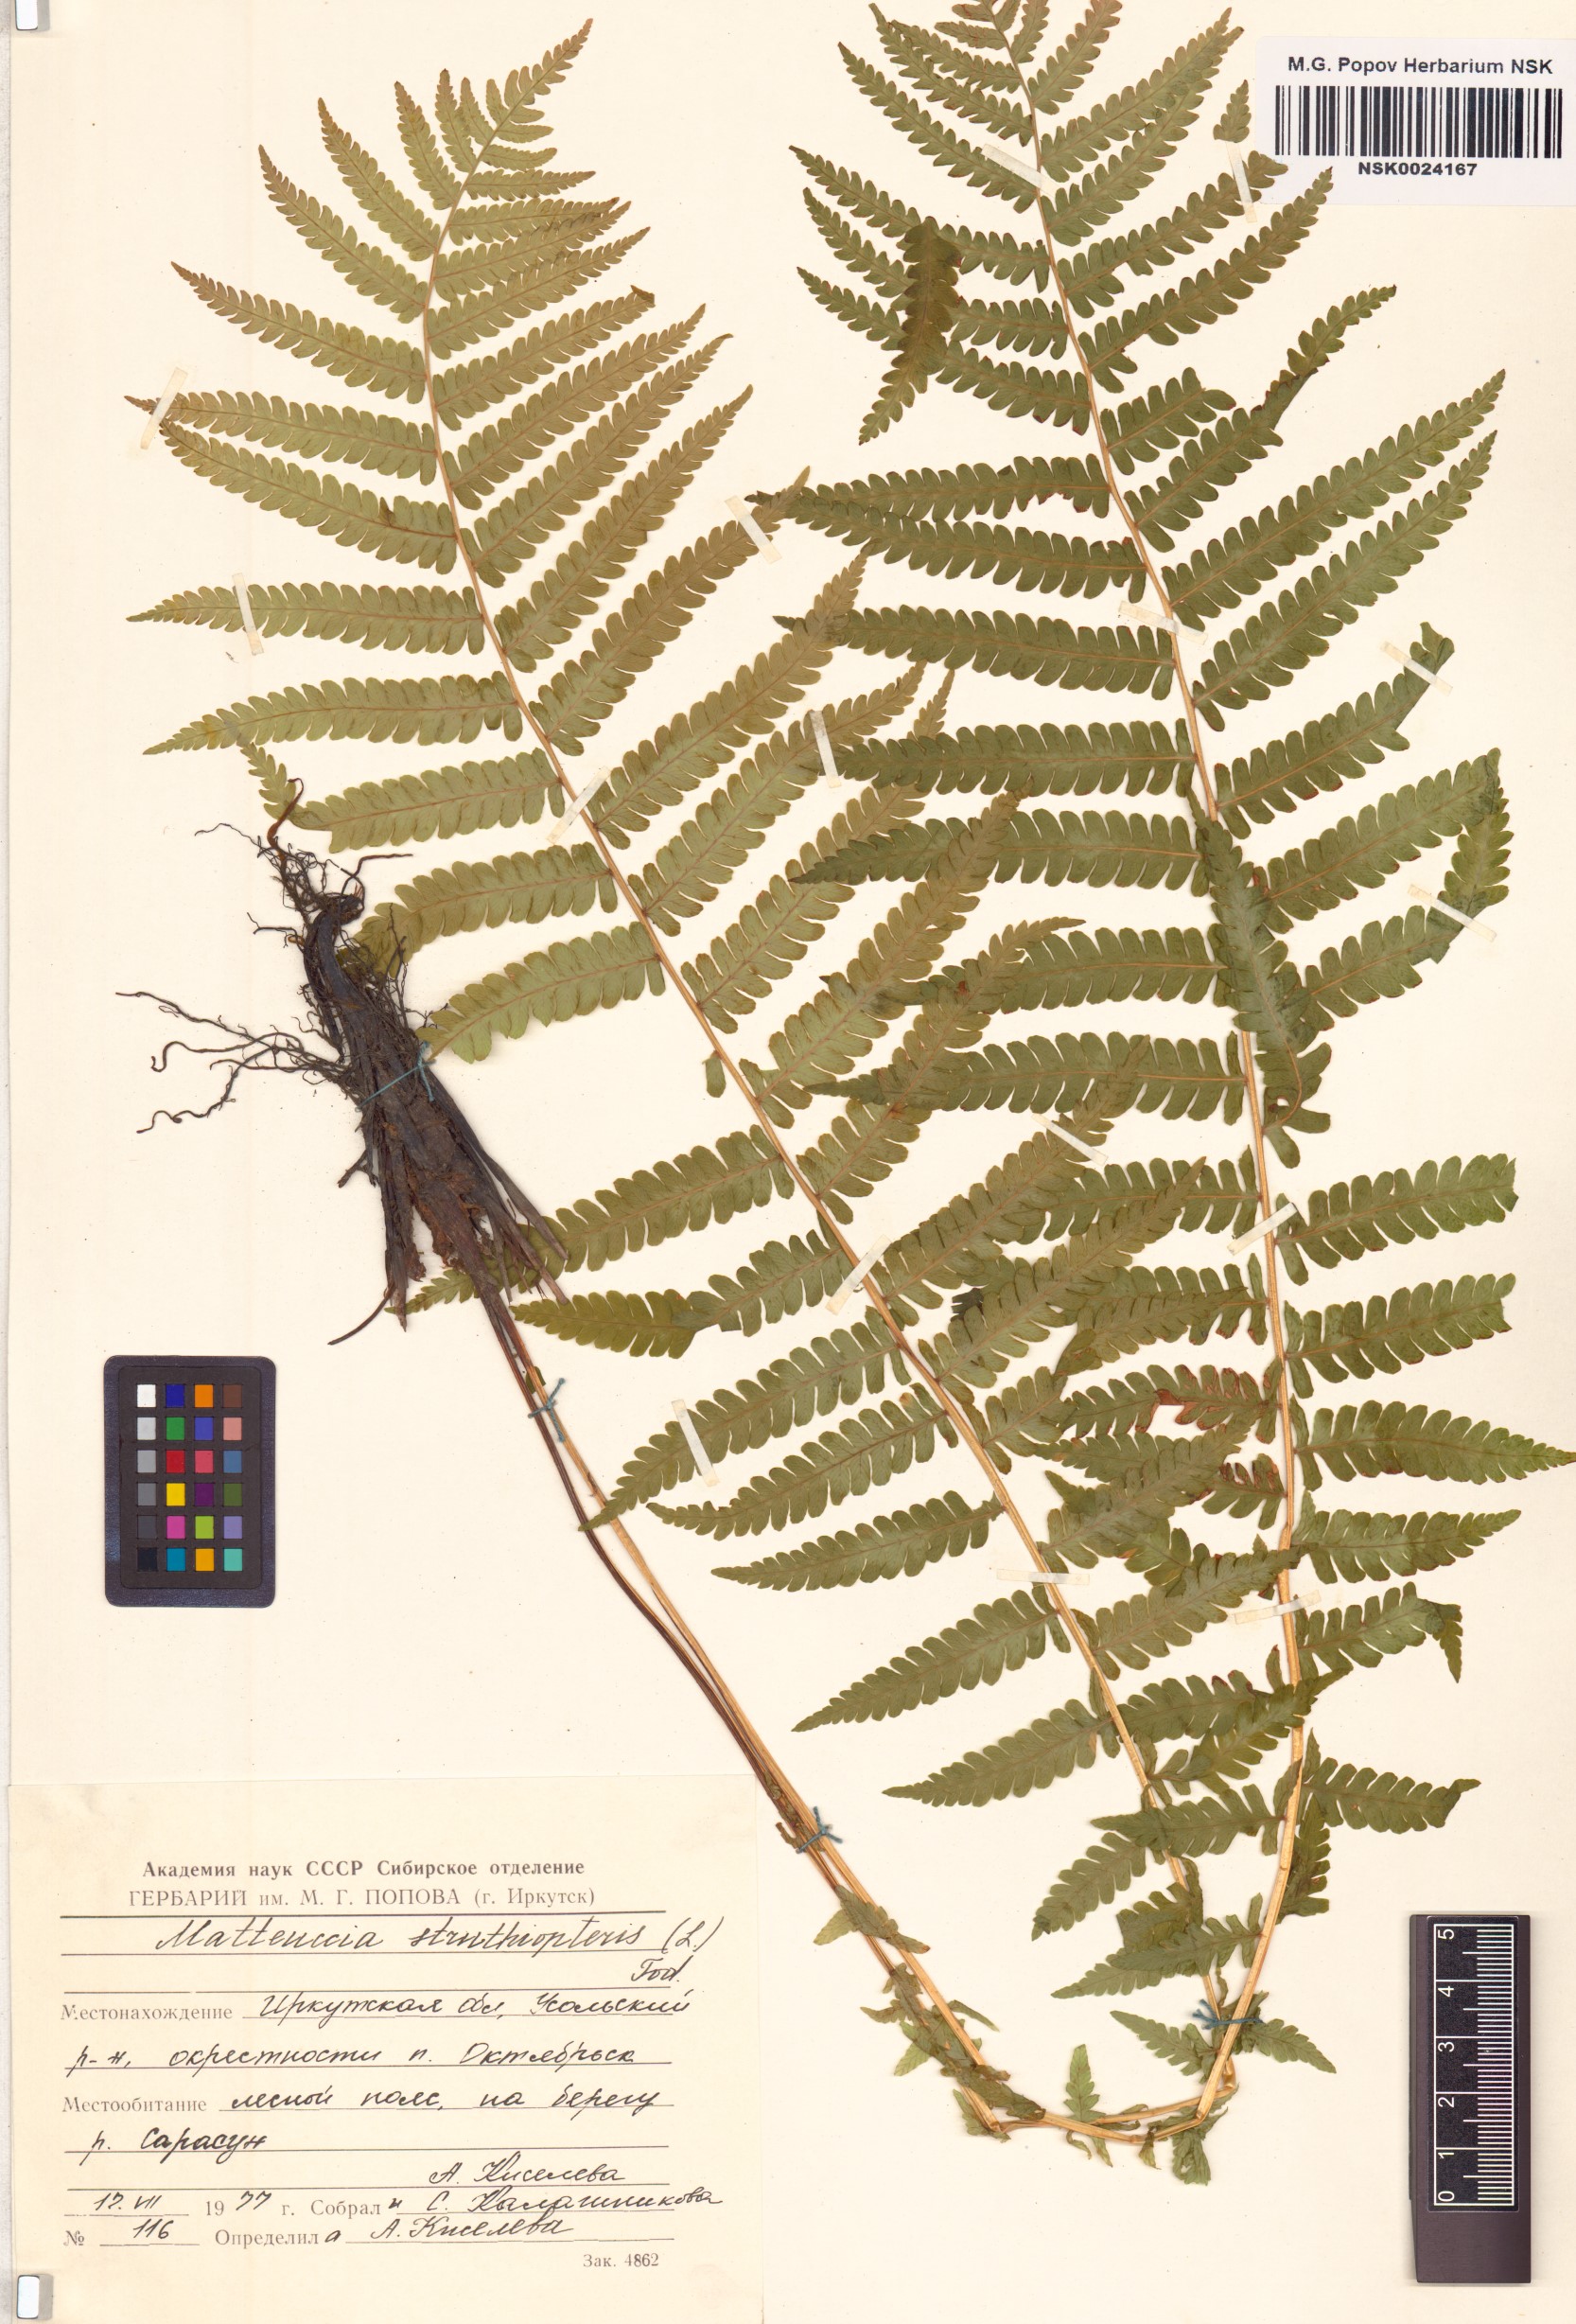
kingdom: Plantae
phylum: Tracheophyta
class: Polypodiopsida
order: Polypodiales
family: Onocleaceae
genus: Matteuccia
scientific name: Matteuccia struthiopteris
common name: Ostrich fern
